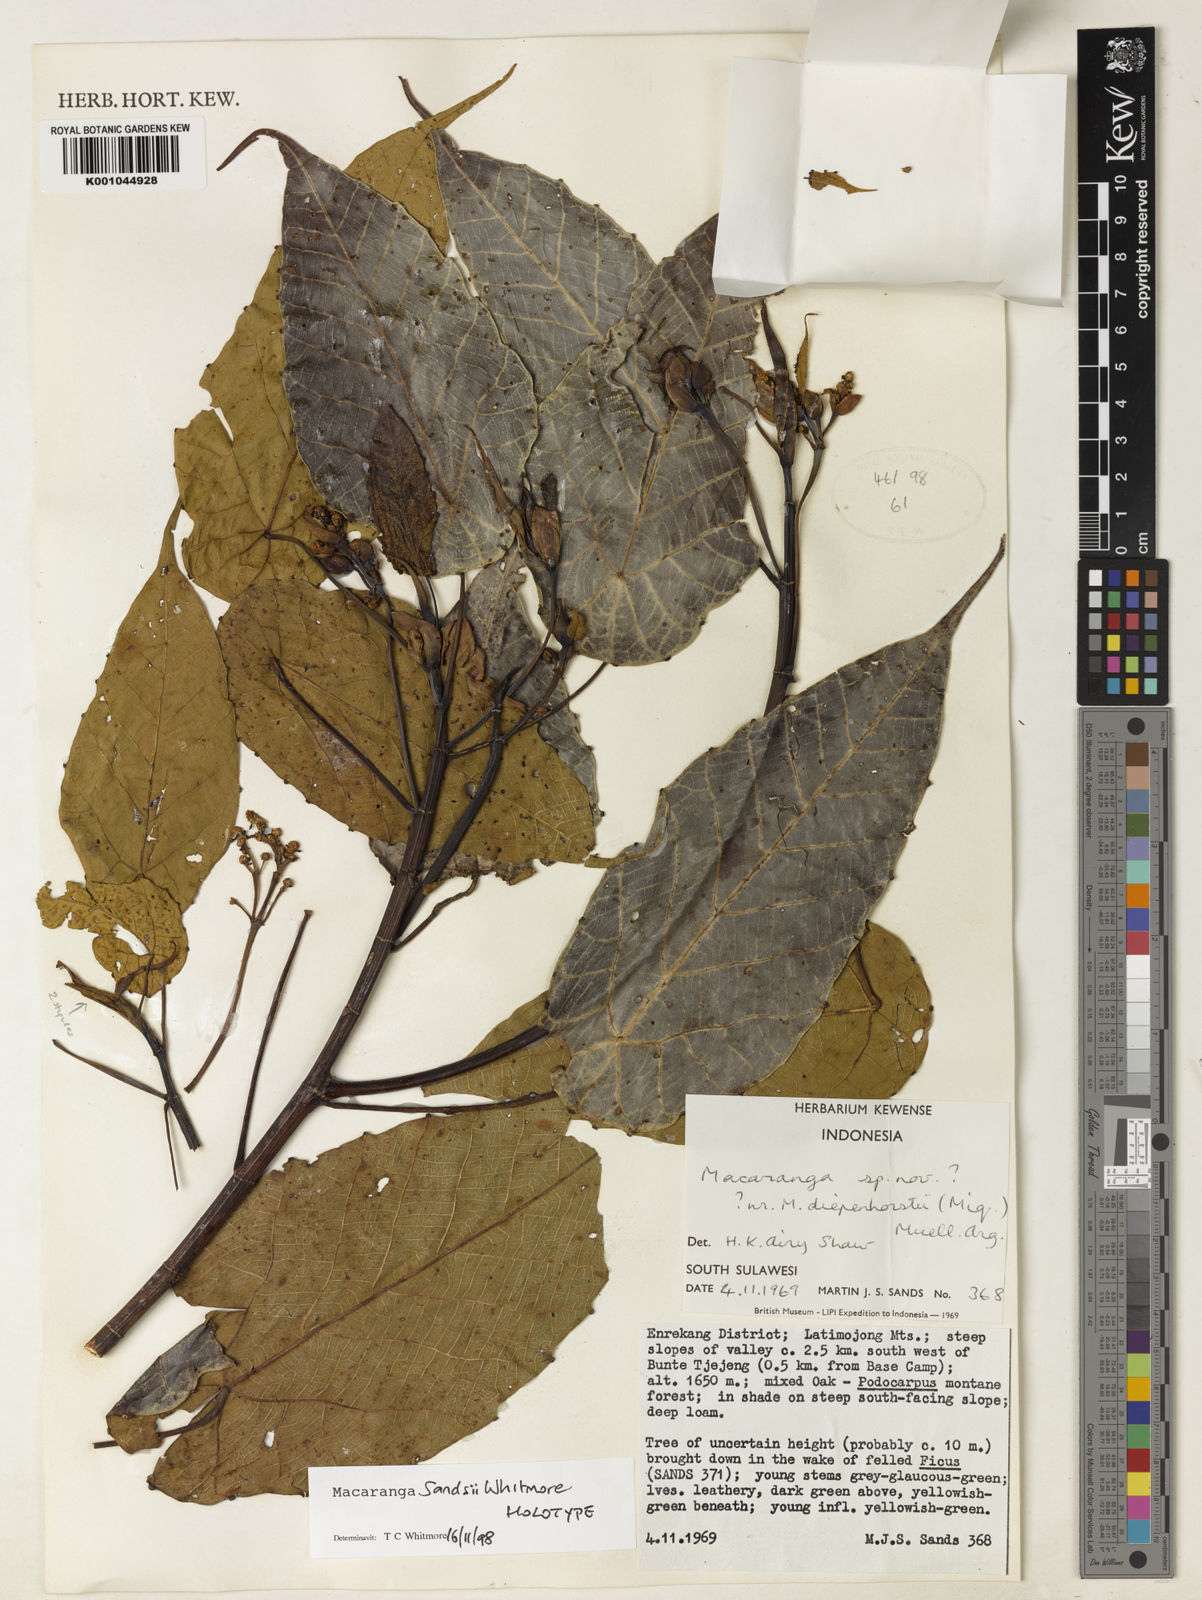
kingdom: Plantae
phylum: Tracheophyta
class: Magnoliopsida
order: Malpighiales
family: Euphorbiaceae
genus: Macaranga
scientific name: Macaranga sandsii
